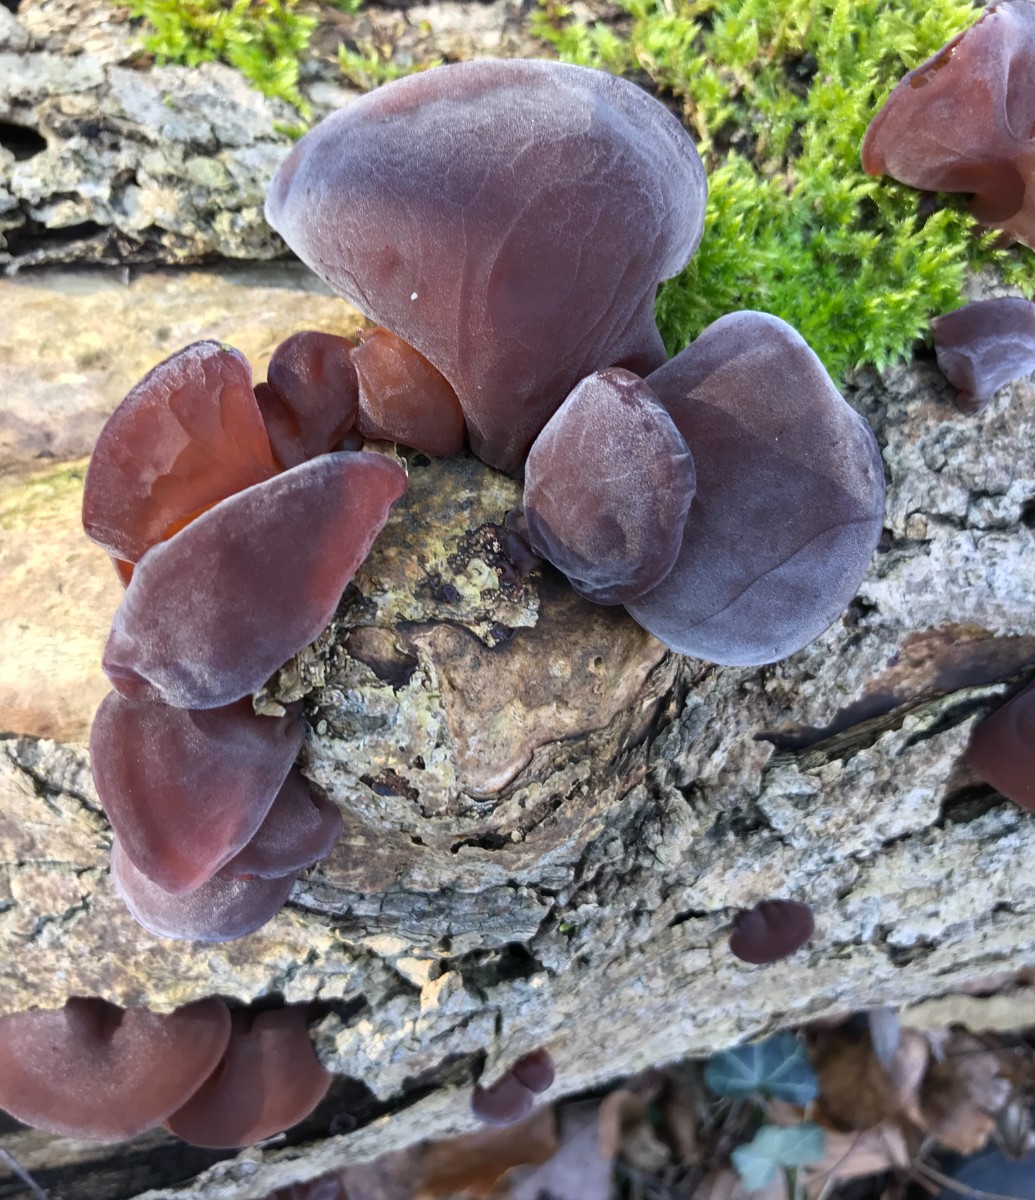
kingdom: Fungi
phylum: Basidiomycota
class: Agaricomycetes
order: Auriculariales
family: Auriculariaceae
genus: Auricularia
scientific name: Auricularia auricula-judae
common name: almindelig judasøre
